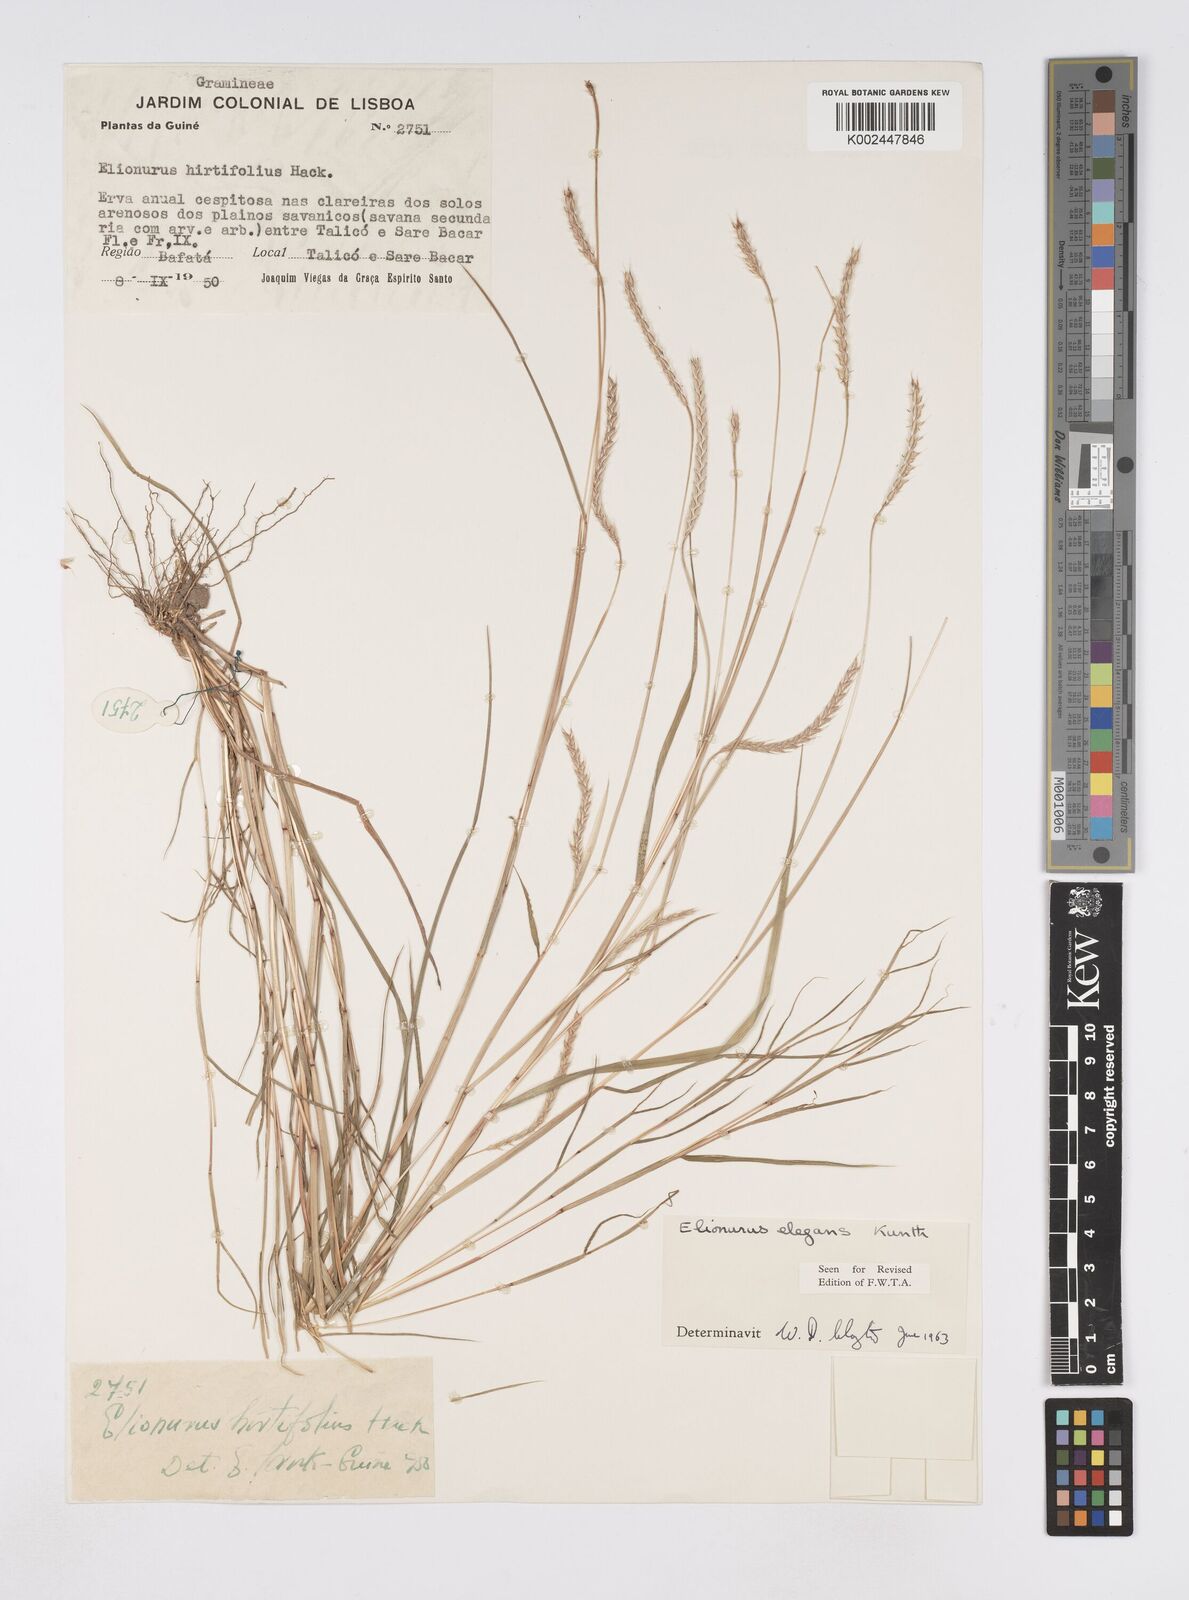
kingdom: Plantae
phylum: Tracheophyta
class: Liliopsida
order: Poales
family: Poaceae
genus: Elionurus
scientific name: Elionurus elegans
